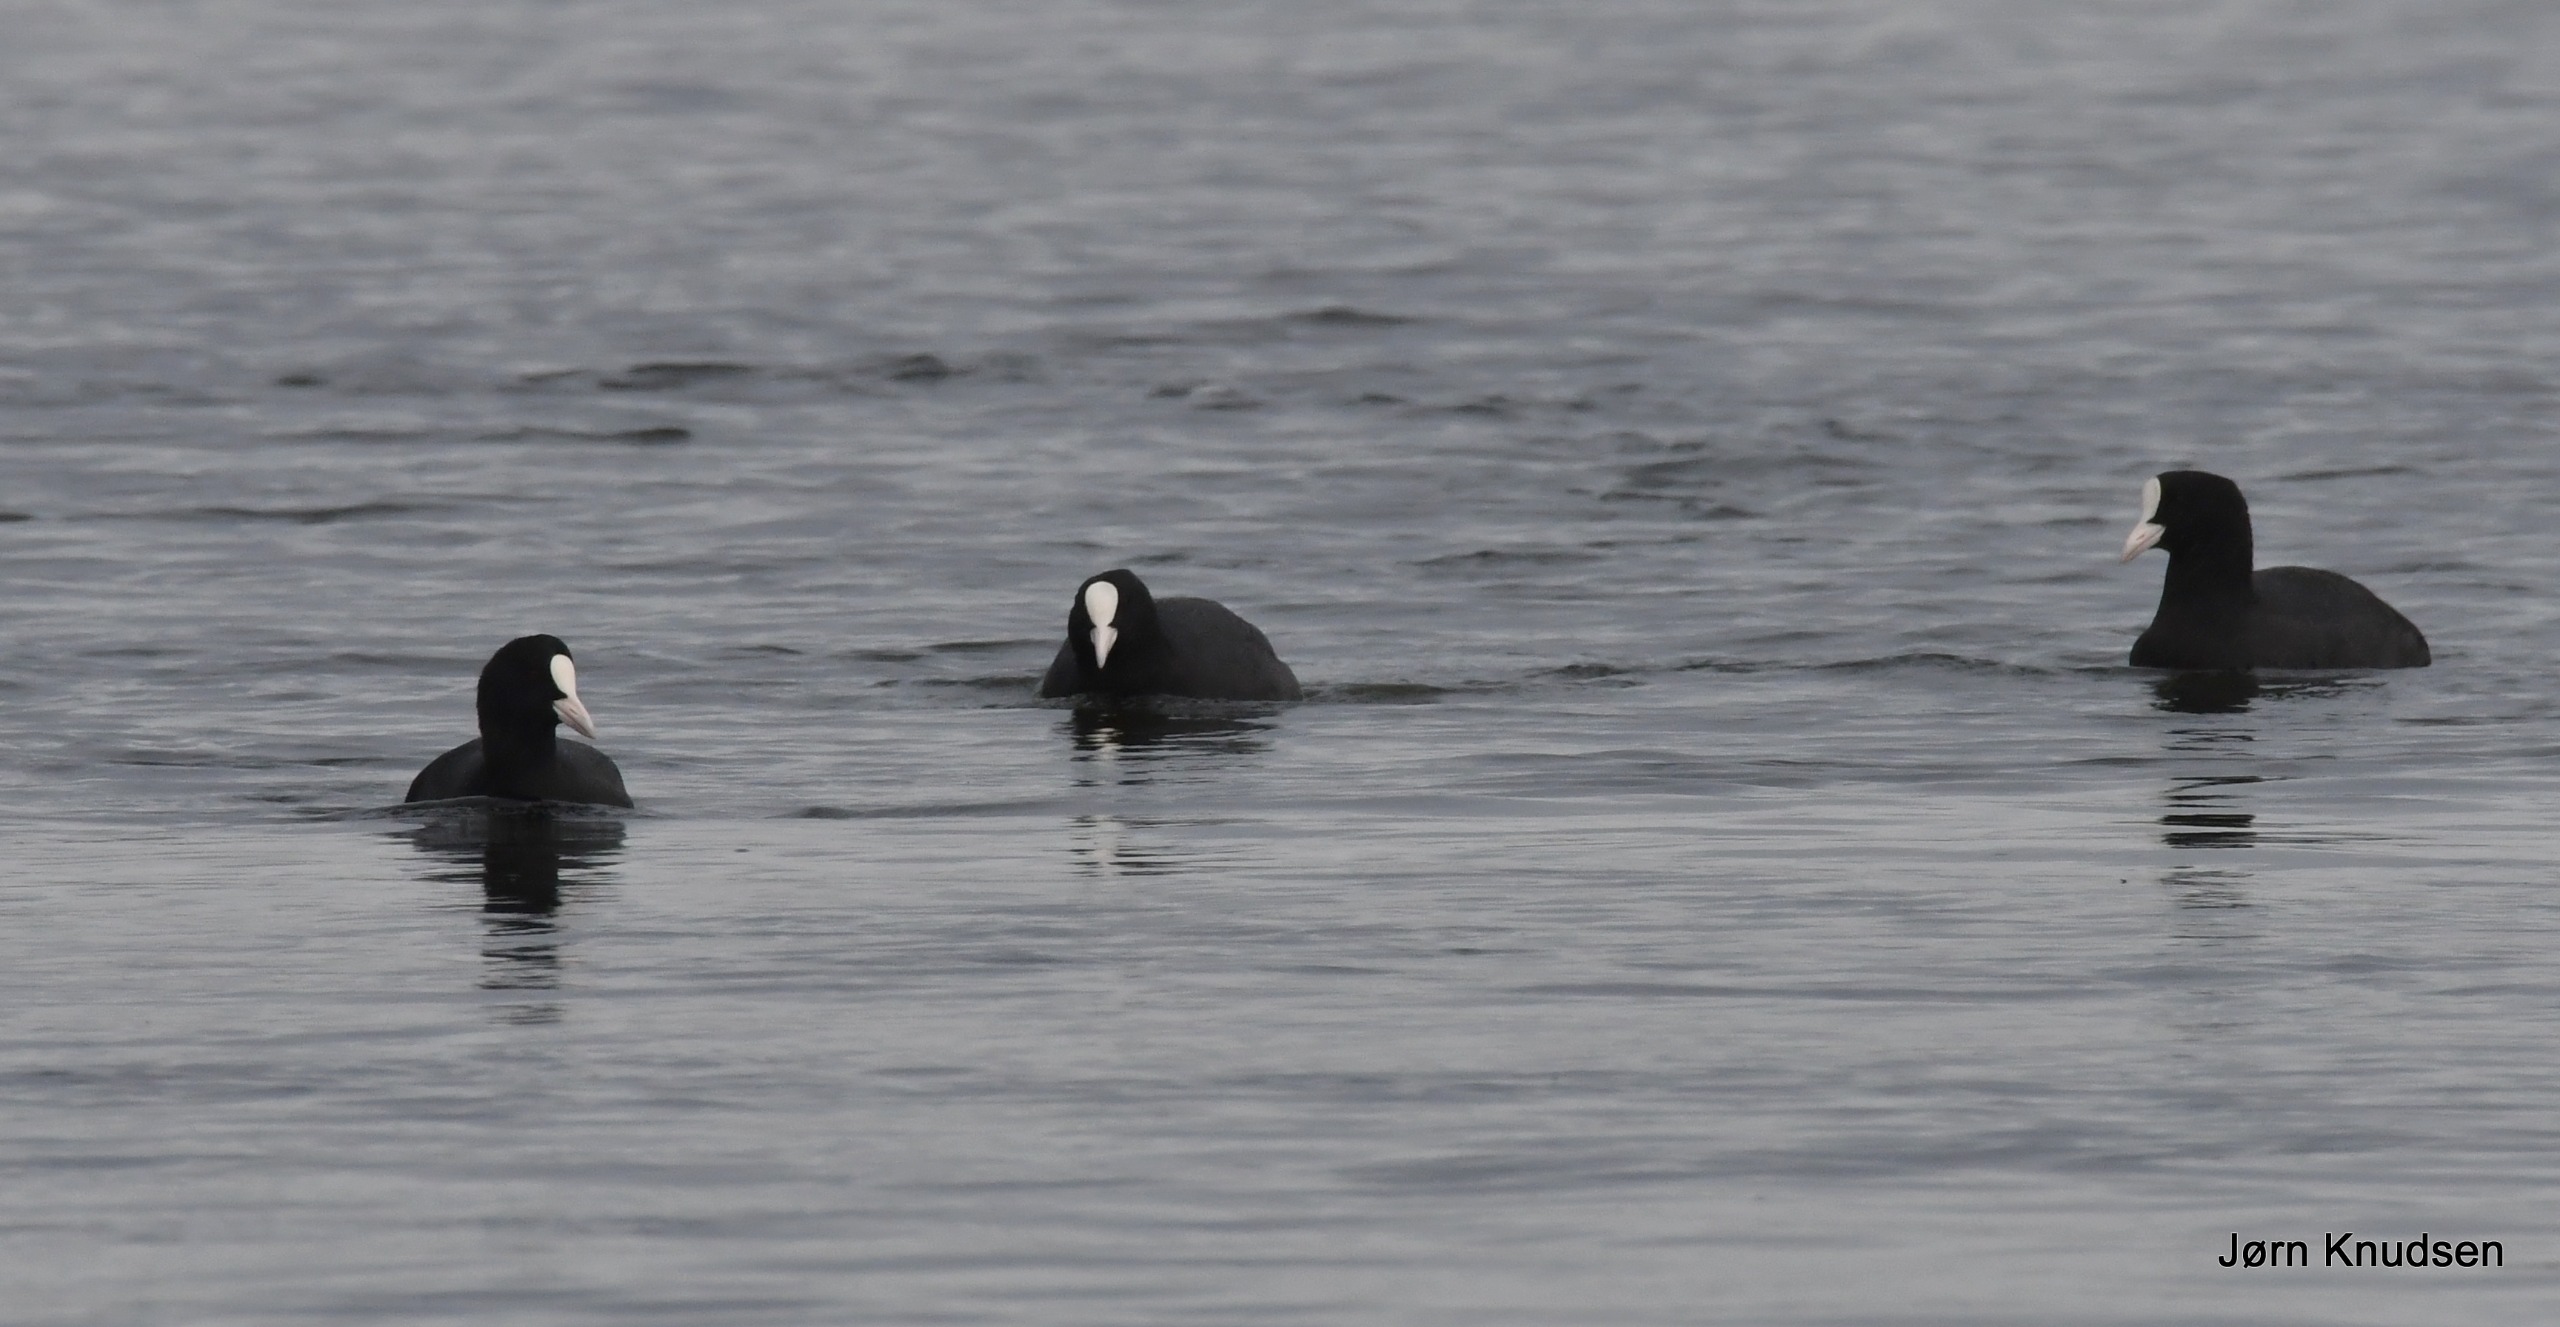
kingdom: Animalia
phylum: Chordata
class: Aves
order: Gruiformes
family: Rallidae
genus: Fulica
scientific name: Fulica atra
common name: Blishøne
